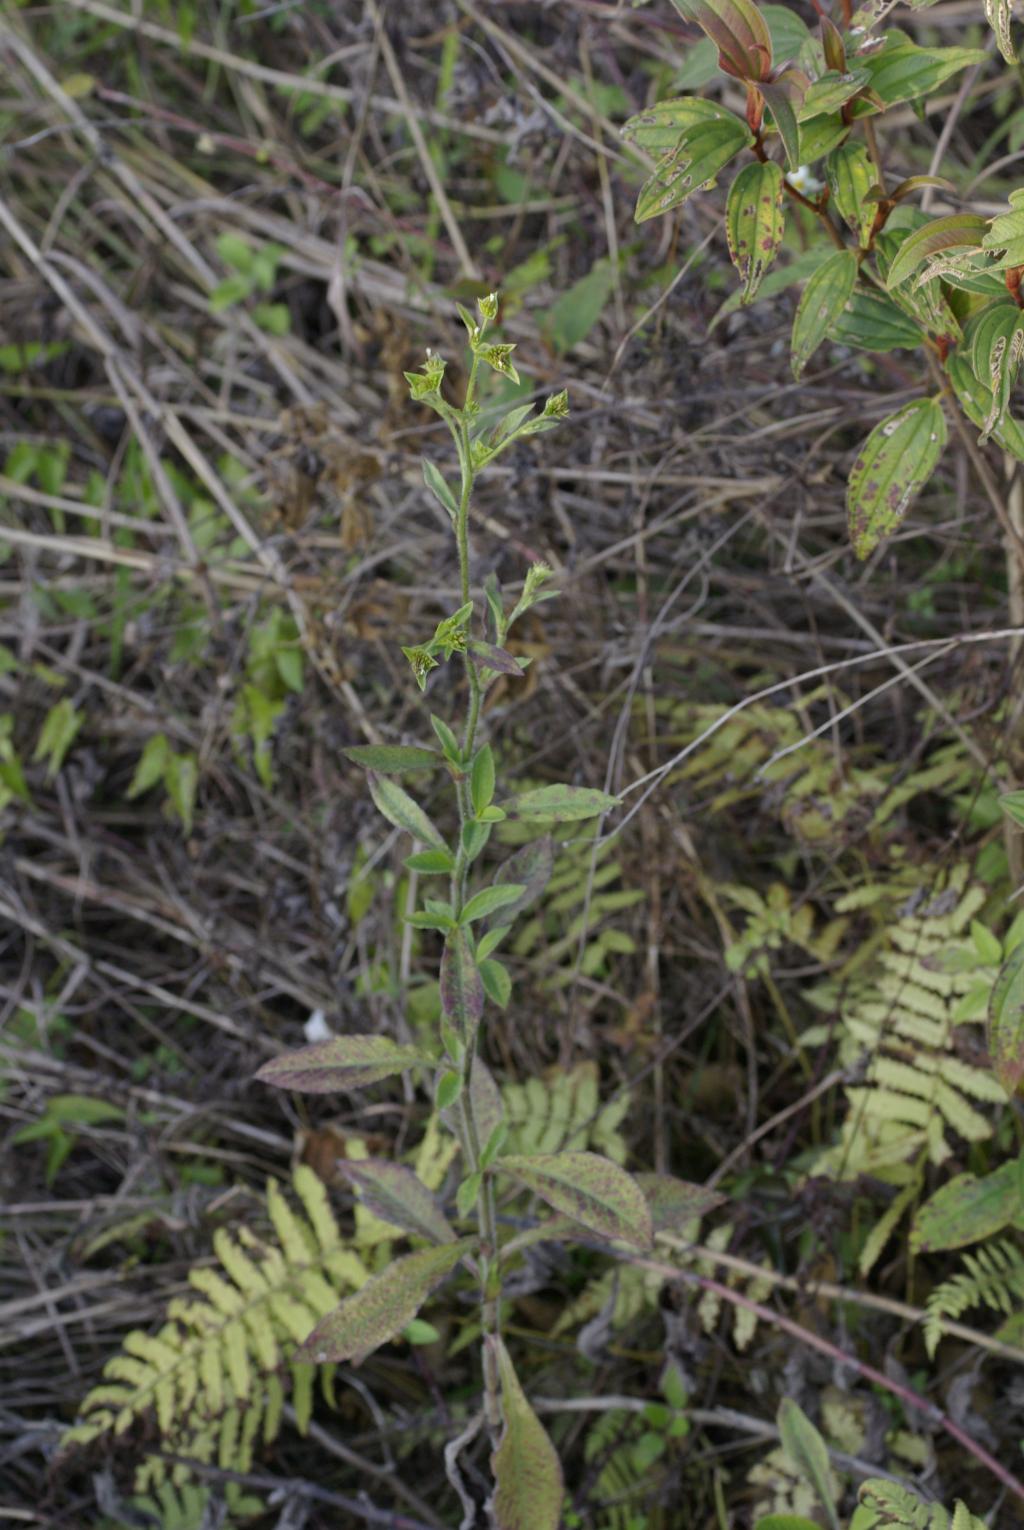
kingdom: Plantae
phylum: Tracheophyta
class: Magnoliopsida
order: Asterales
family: Asteraceae
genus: Elephantopus
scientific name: Elephantopus mollis
